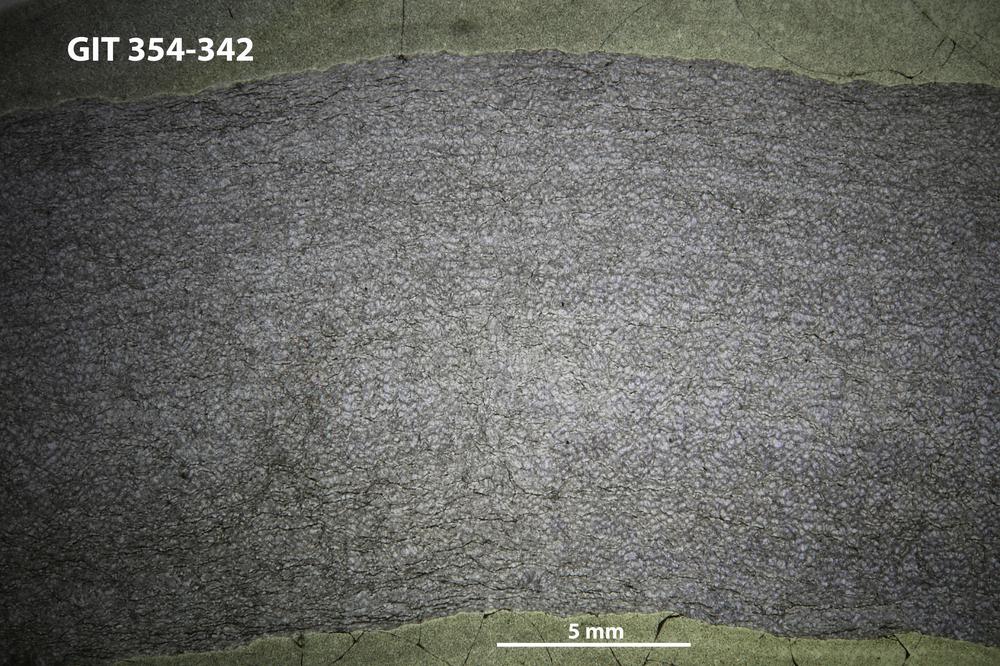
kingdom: Animalia
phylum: Porifera
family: Ecclimadictyidae
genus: Ecclimadictyon
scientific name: Ecclimadictyon macrotuberculatum
